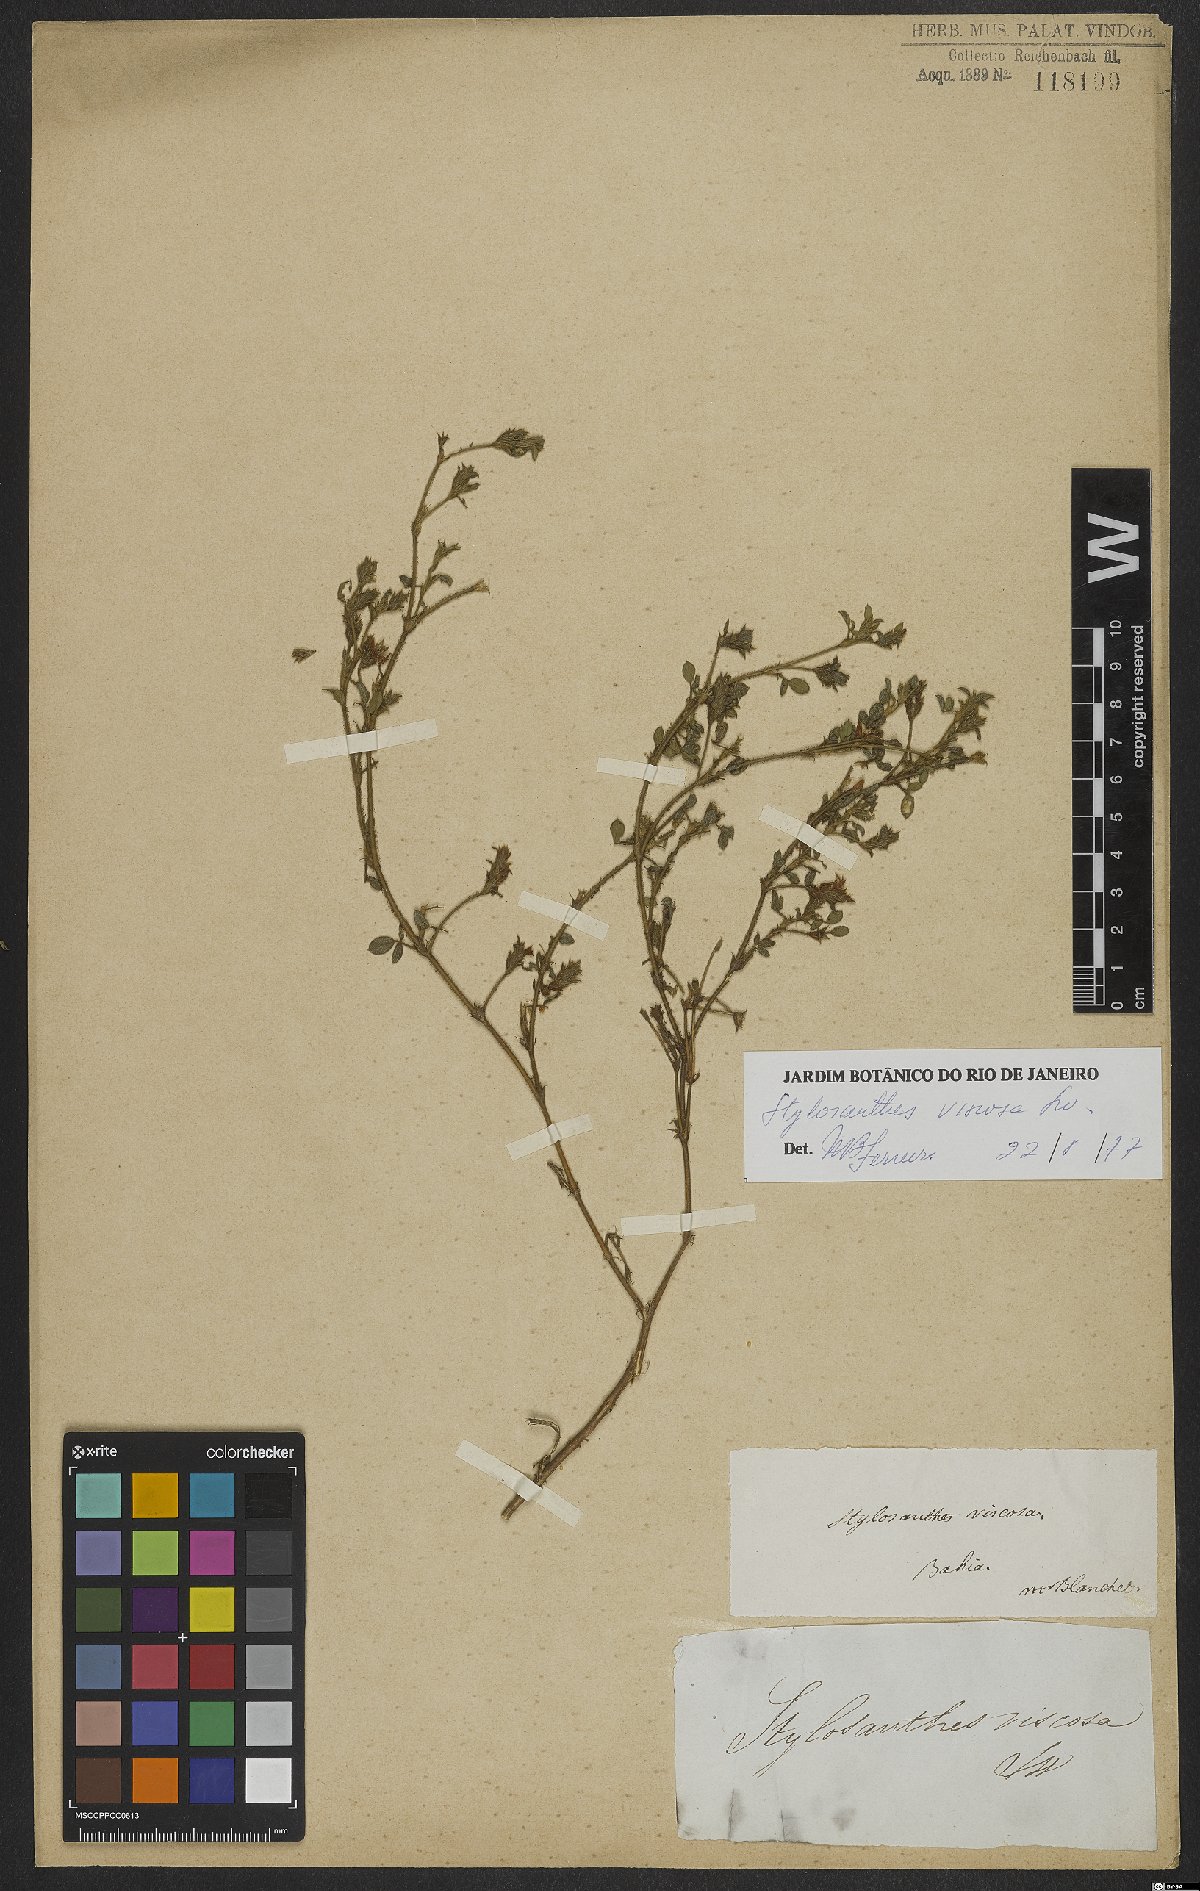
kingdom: Plantae
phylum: Tracheophyta
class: Magnoliopsida
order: Fabales
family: Fabaceae
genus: Stylosanthes
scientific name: Stylosanthes viscosa
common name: Viscid pencil-flower
